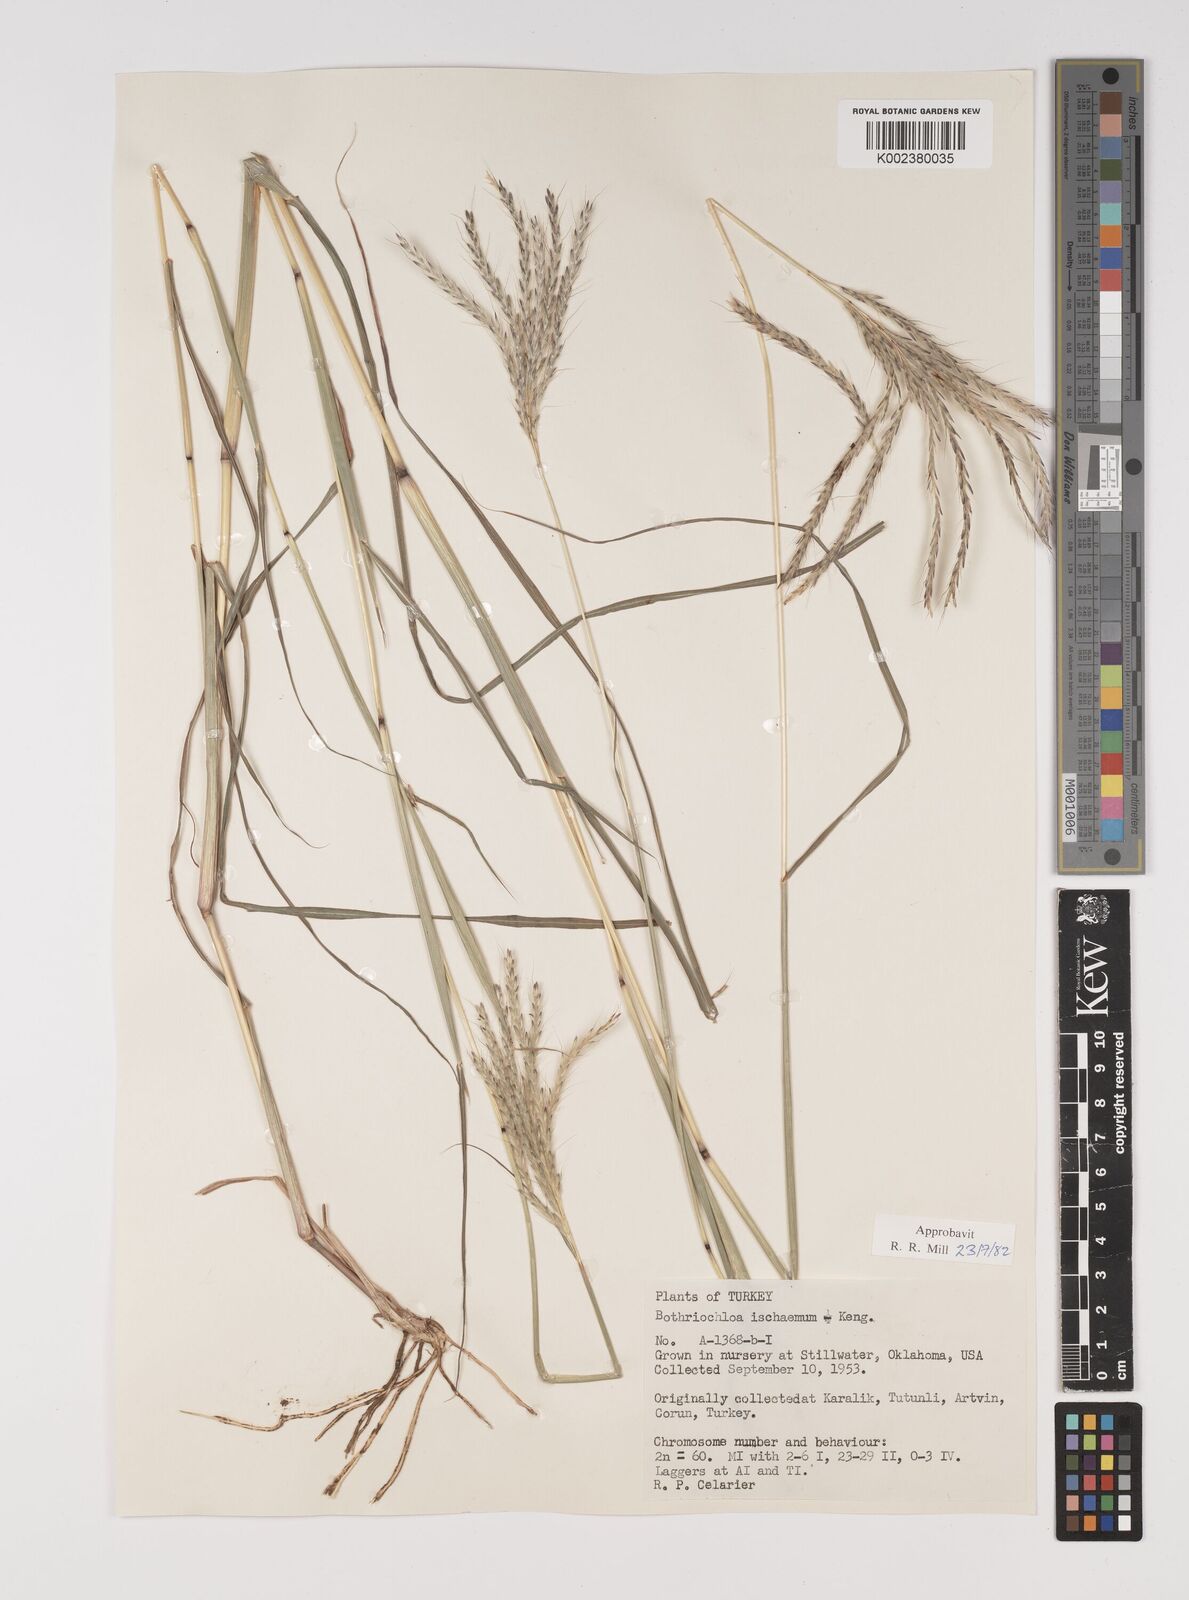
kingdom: Plantae
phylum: Tracheophyta
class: Liliopsida
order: Poales
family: Poaceae
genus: Bothriochloa
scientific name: Bothriochloa ischaemum
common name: Yellow bluestem
